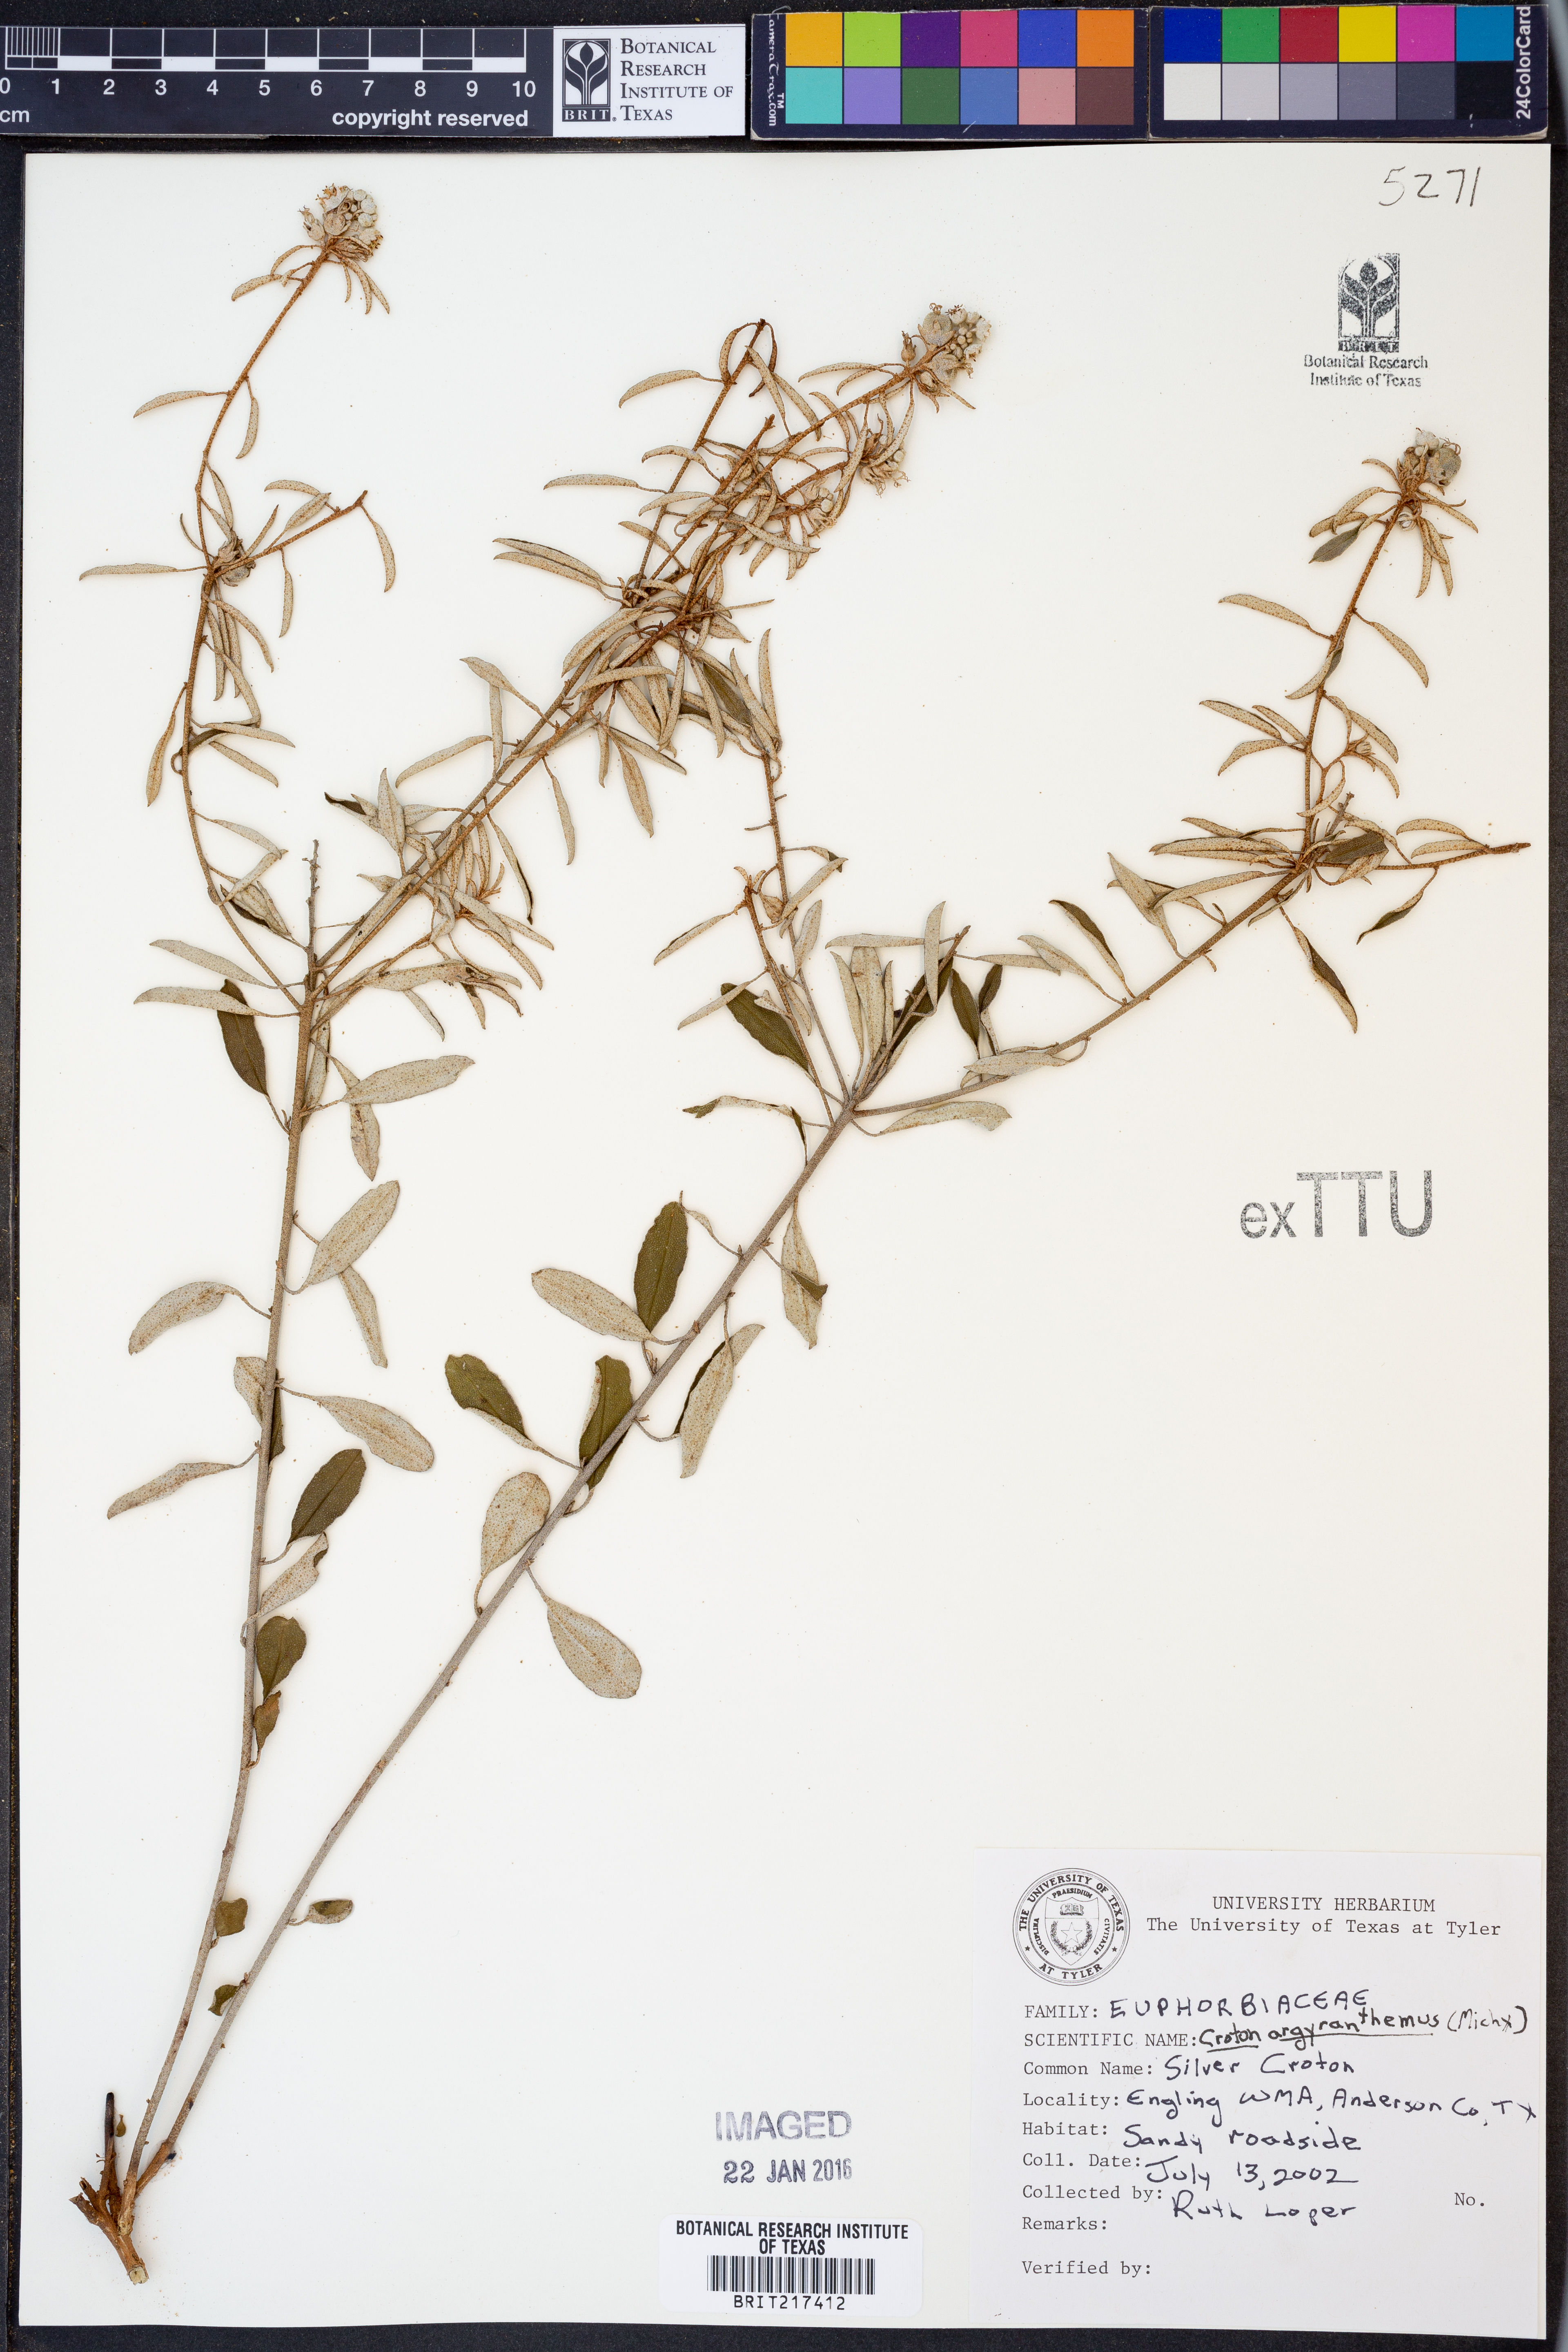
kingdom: Plantae
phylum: Tracheophyta
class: Magnoliopsida
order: Malpighiales
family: Euphorbiaceae
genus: Croton
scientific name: Croton argyranthemus
